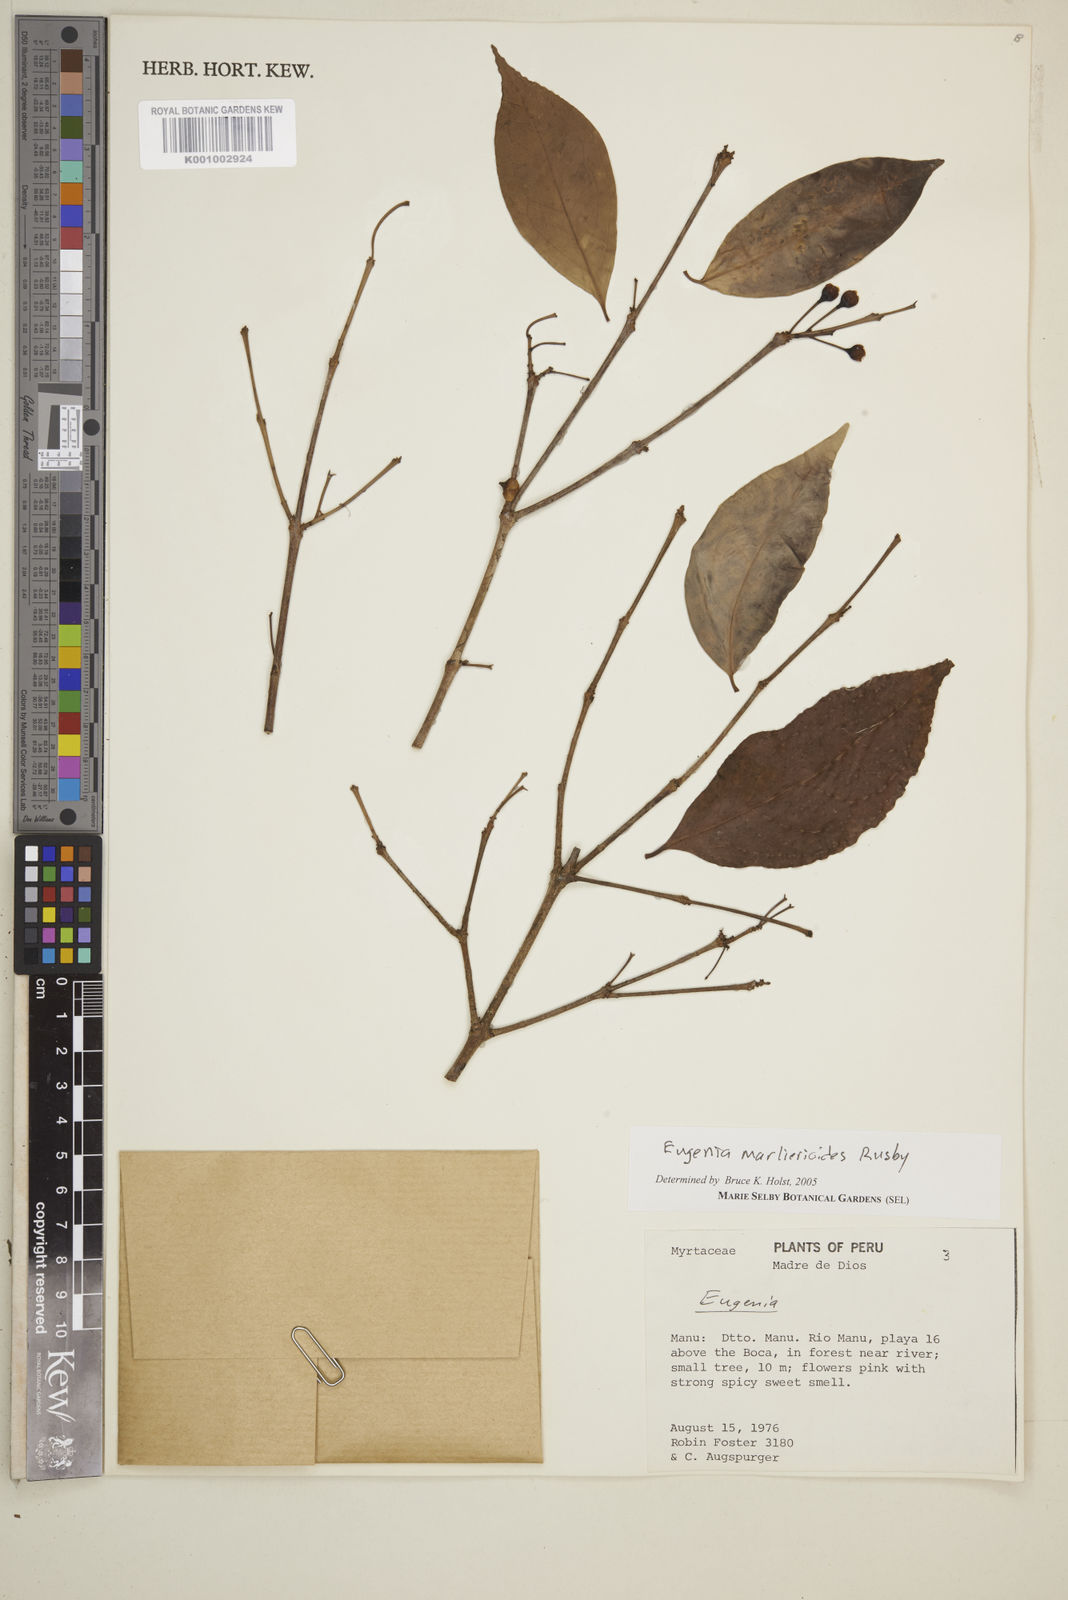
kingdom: Plantae
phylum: Tracheophyta
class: Magnoliopsida
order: Myrtales
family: Myrtaceae
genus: Eugenia
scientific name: Eugenia marlierioides
